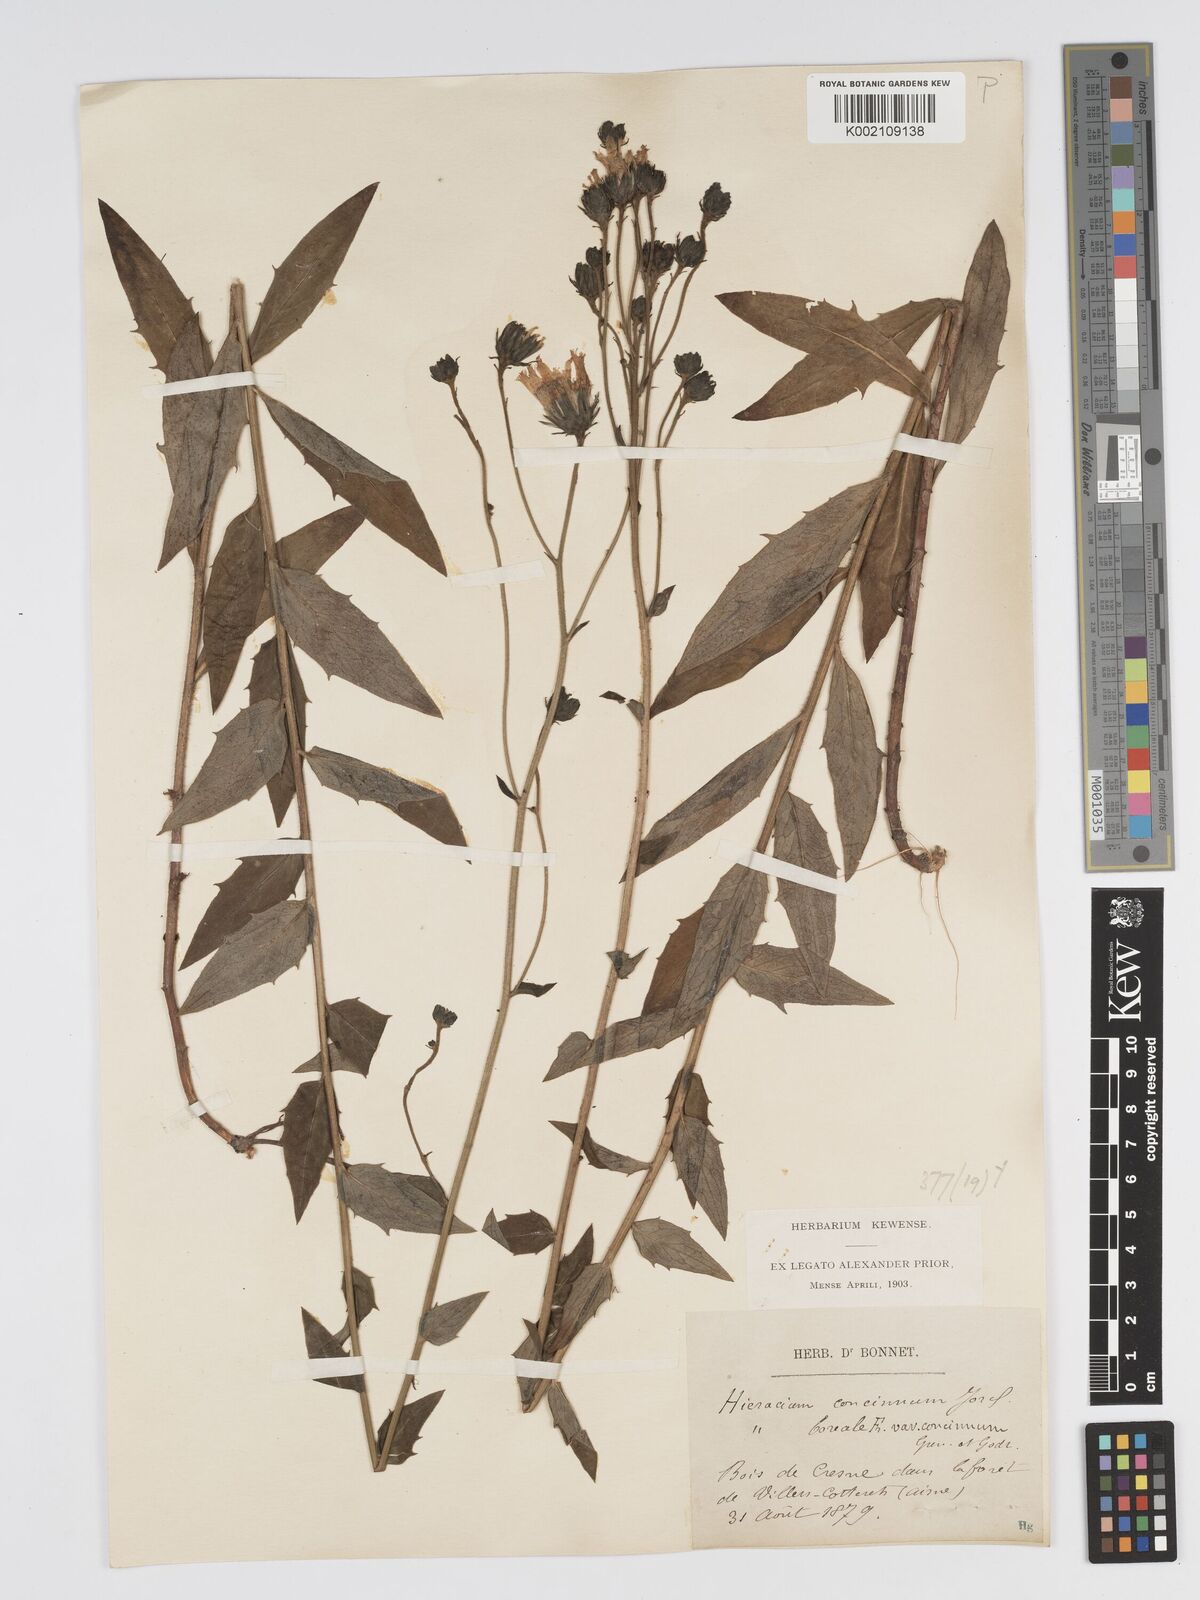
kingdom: Plantae
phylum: Tracheophyta
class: Magnoliopsida
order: Asterales
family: Asteraceae
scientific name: Asteraceae
